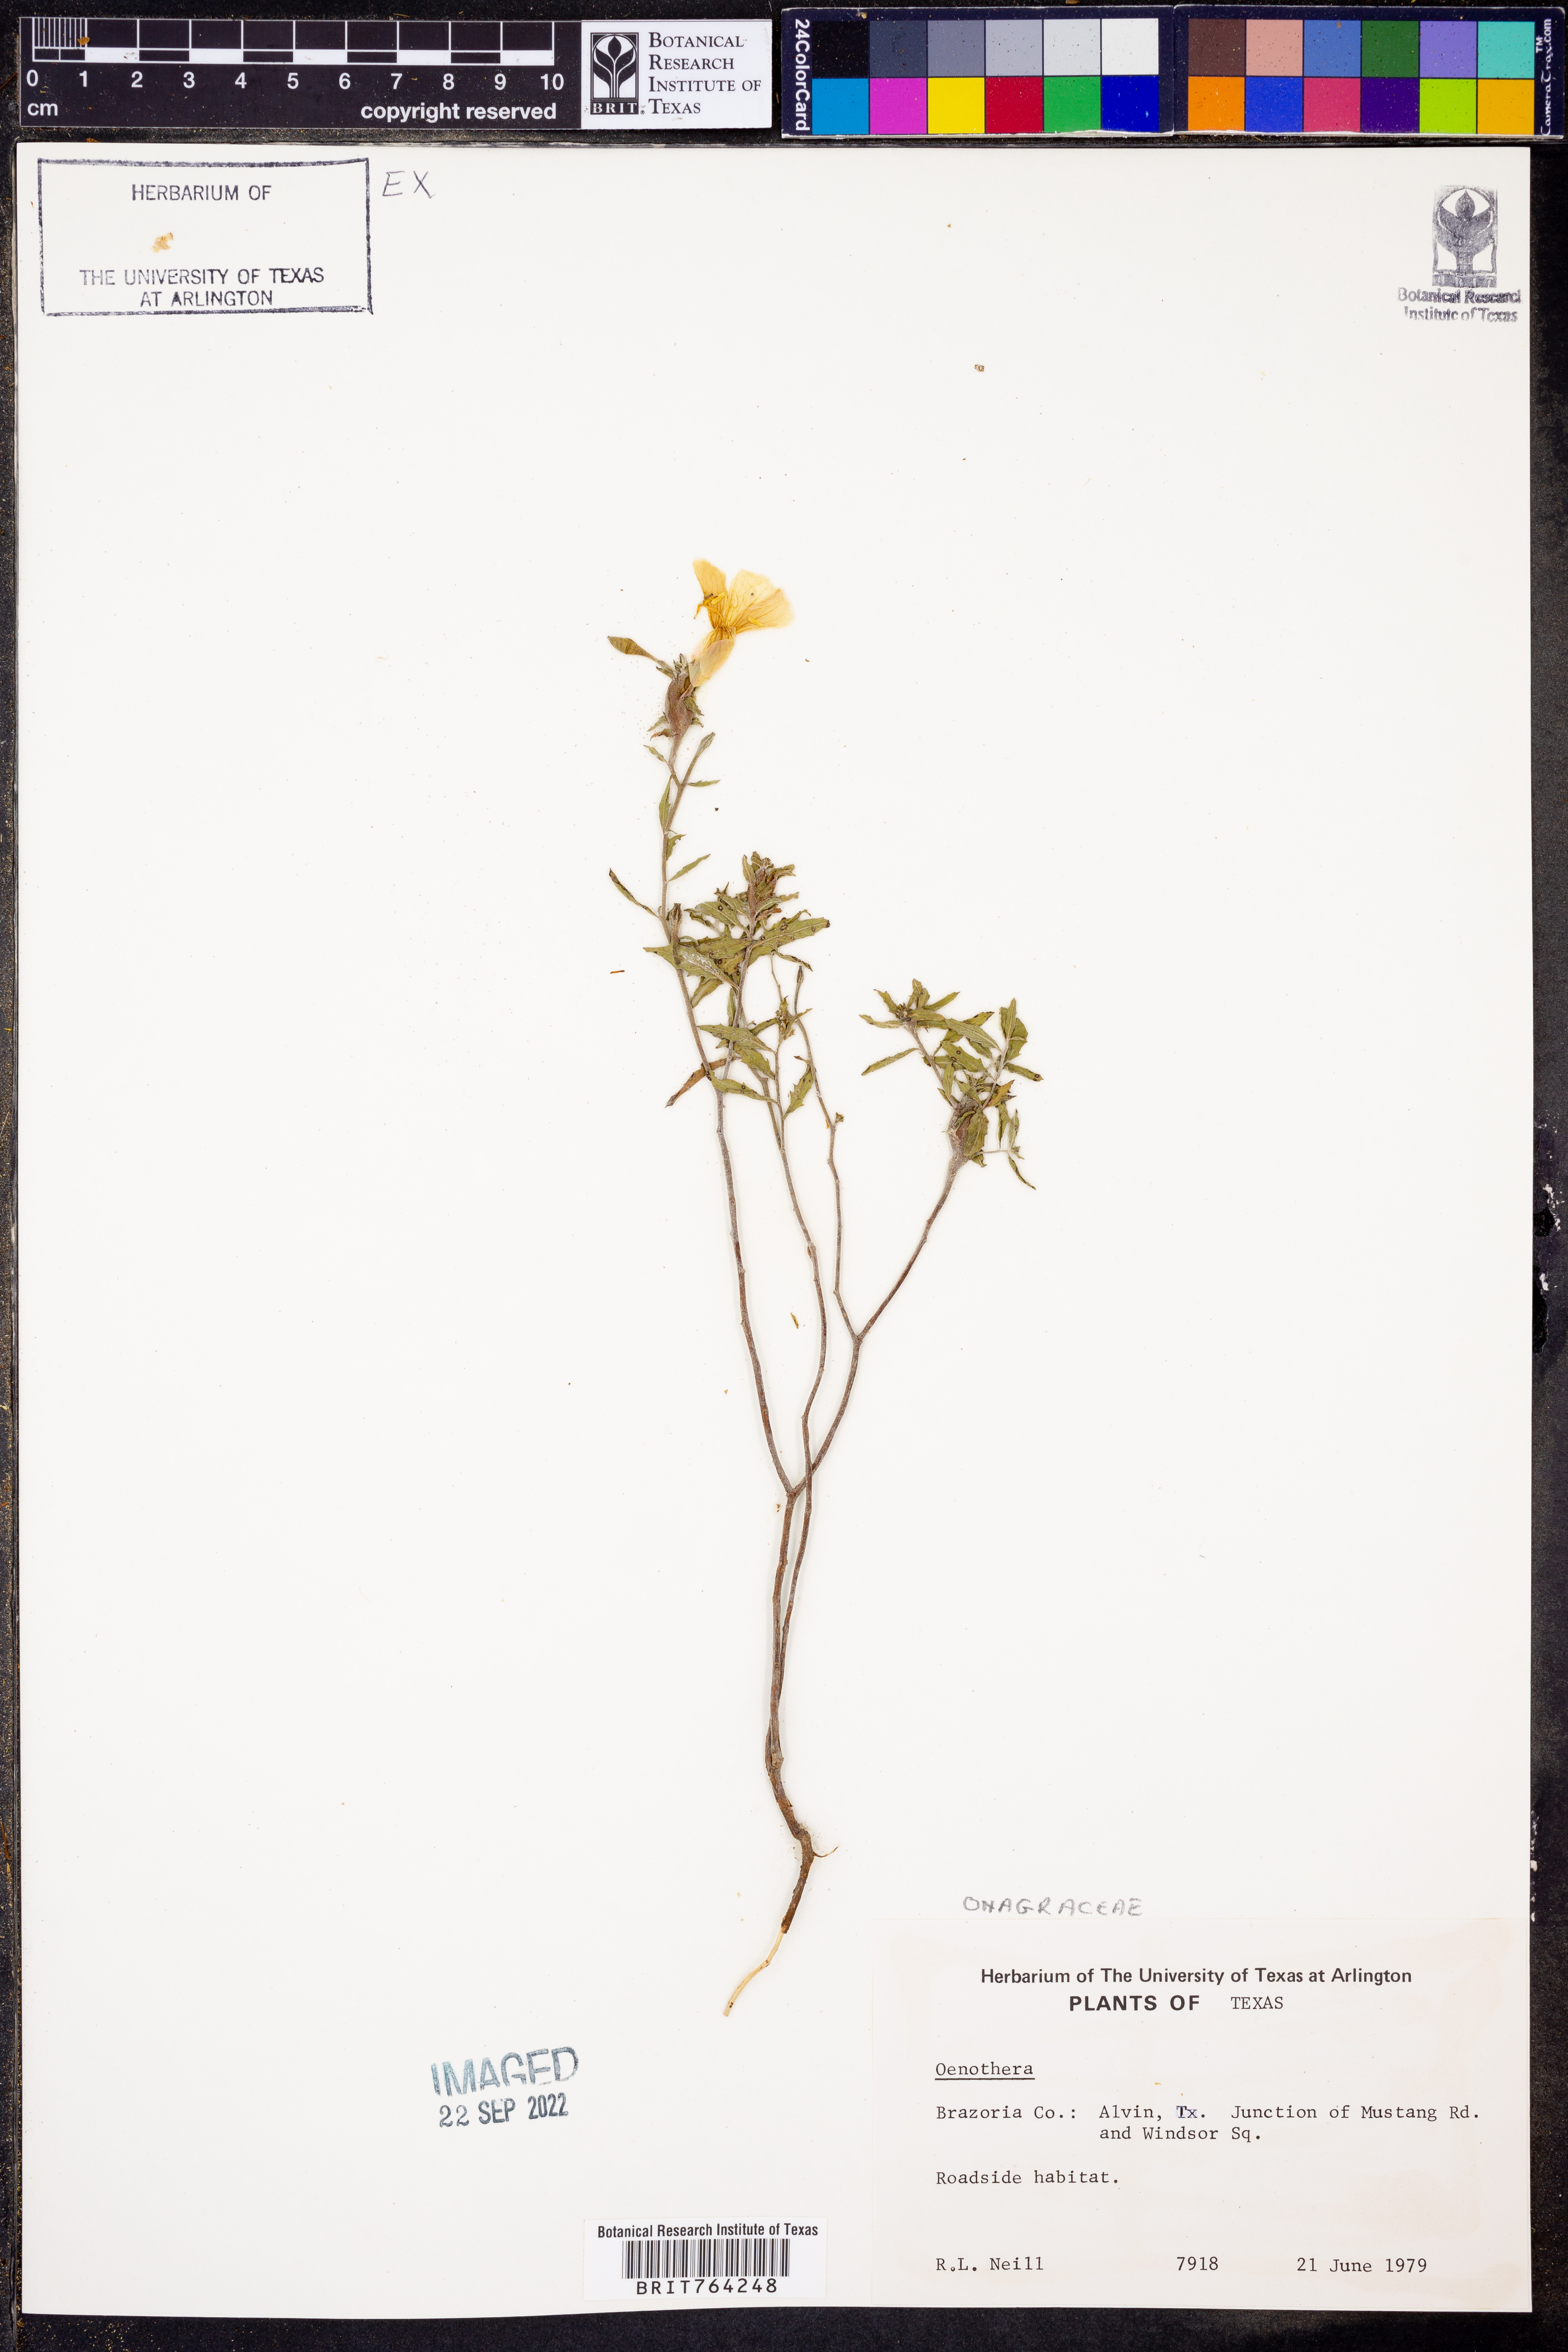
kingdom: Plantae
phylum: Tracheophyta
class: Magnoliopsida
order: Myrtales
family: Onagraceae
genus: Oenothera
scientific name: Oenothera
